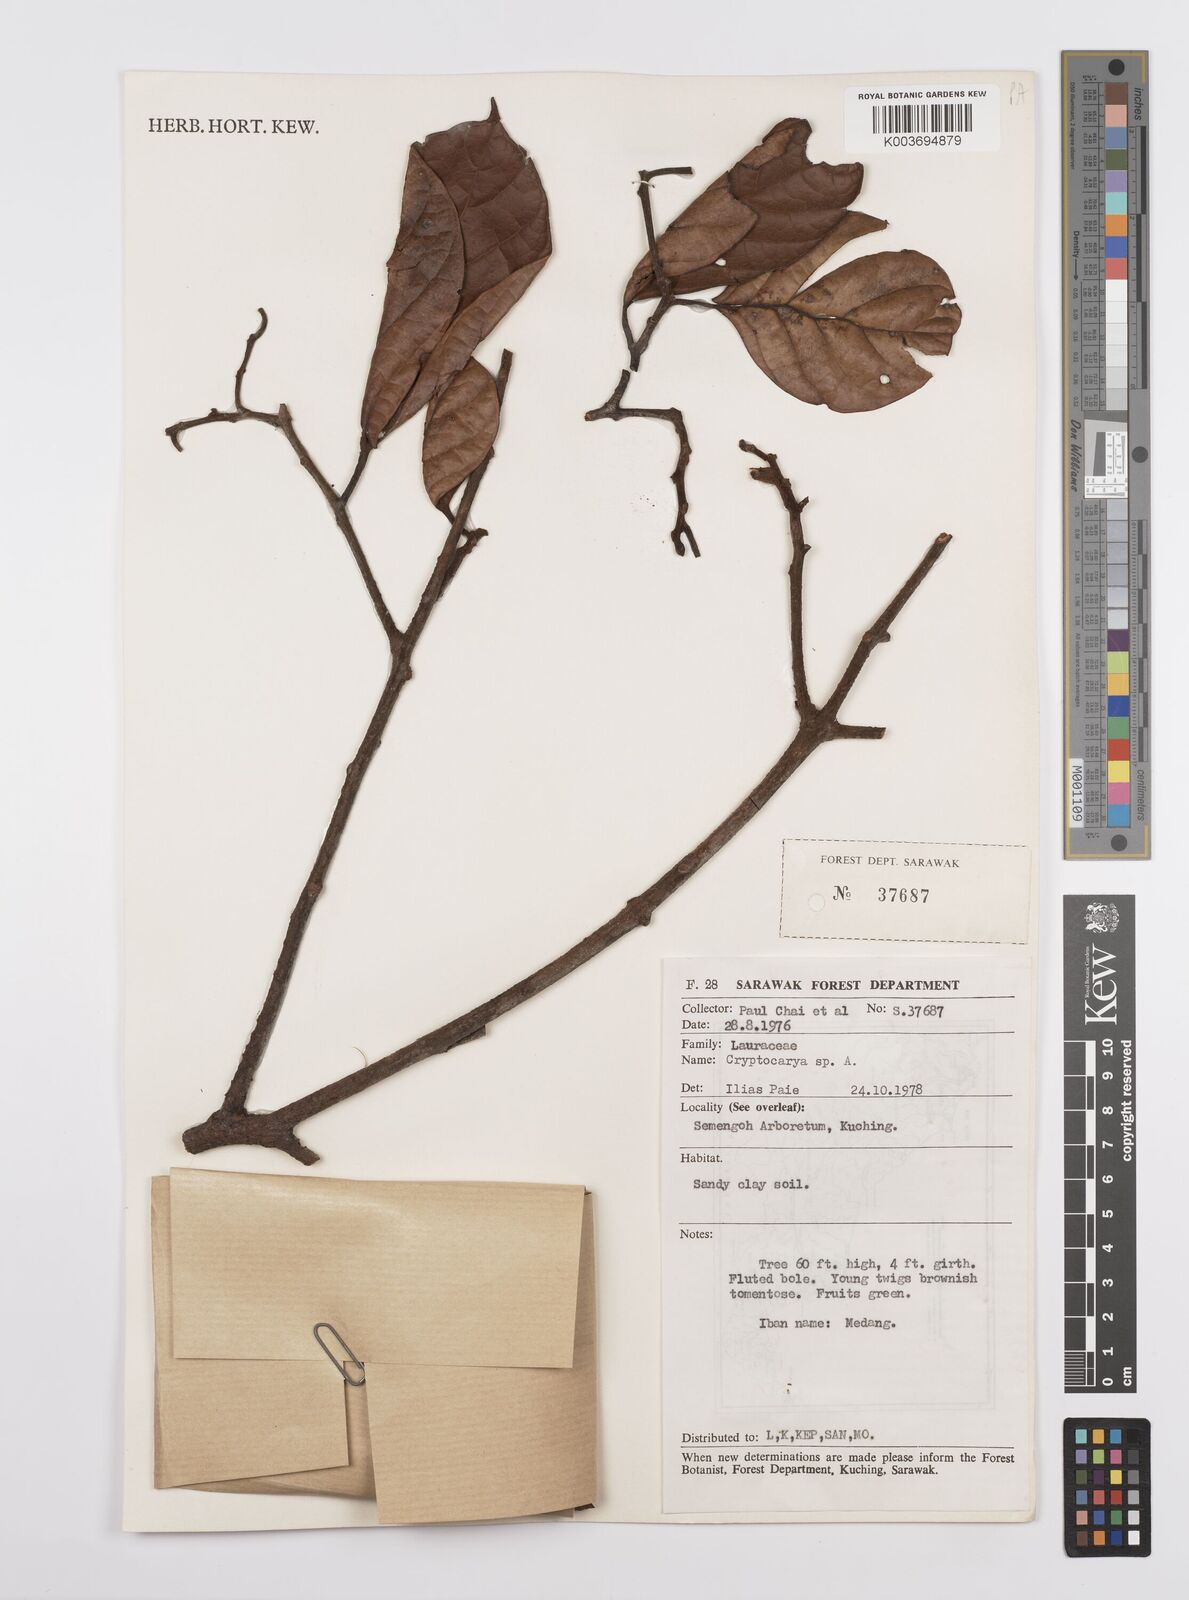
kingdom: Plantae
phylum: Tracheophyta
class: Magnoliopsida
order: Laurales
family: Lauraceae
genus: Cryptocarya
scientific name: Cryptocarya
